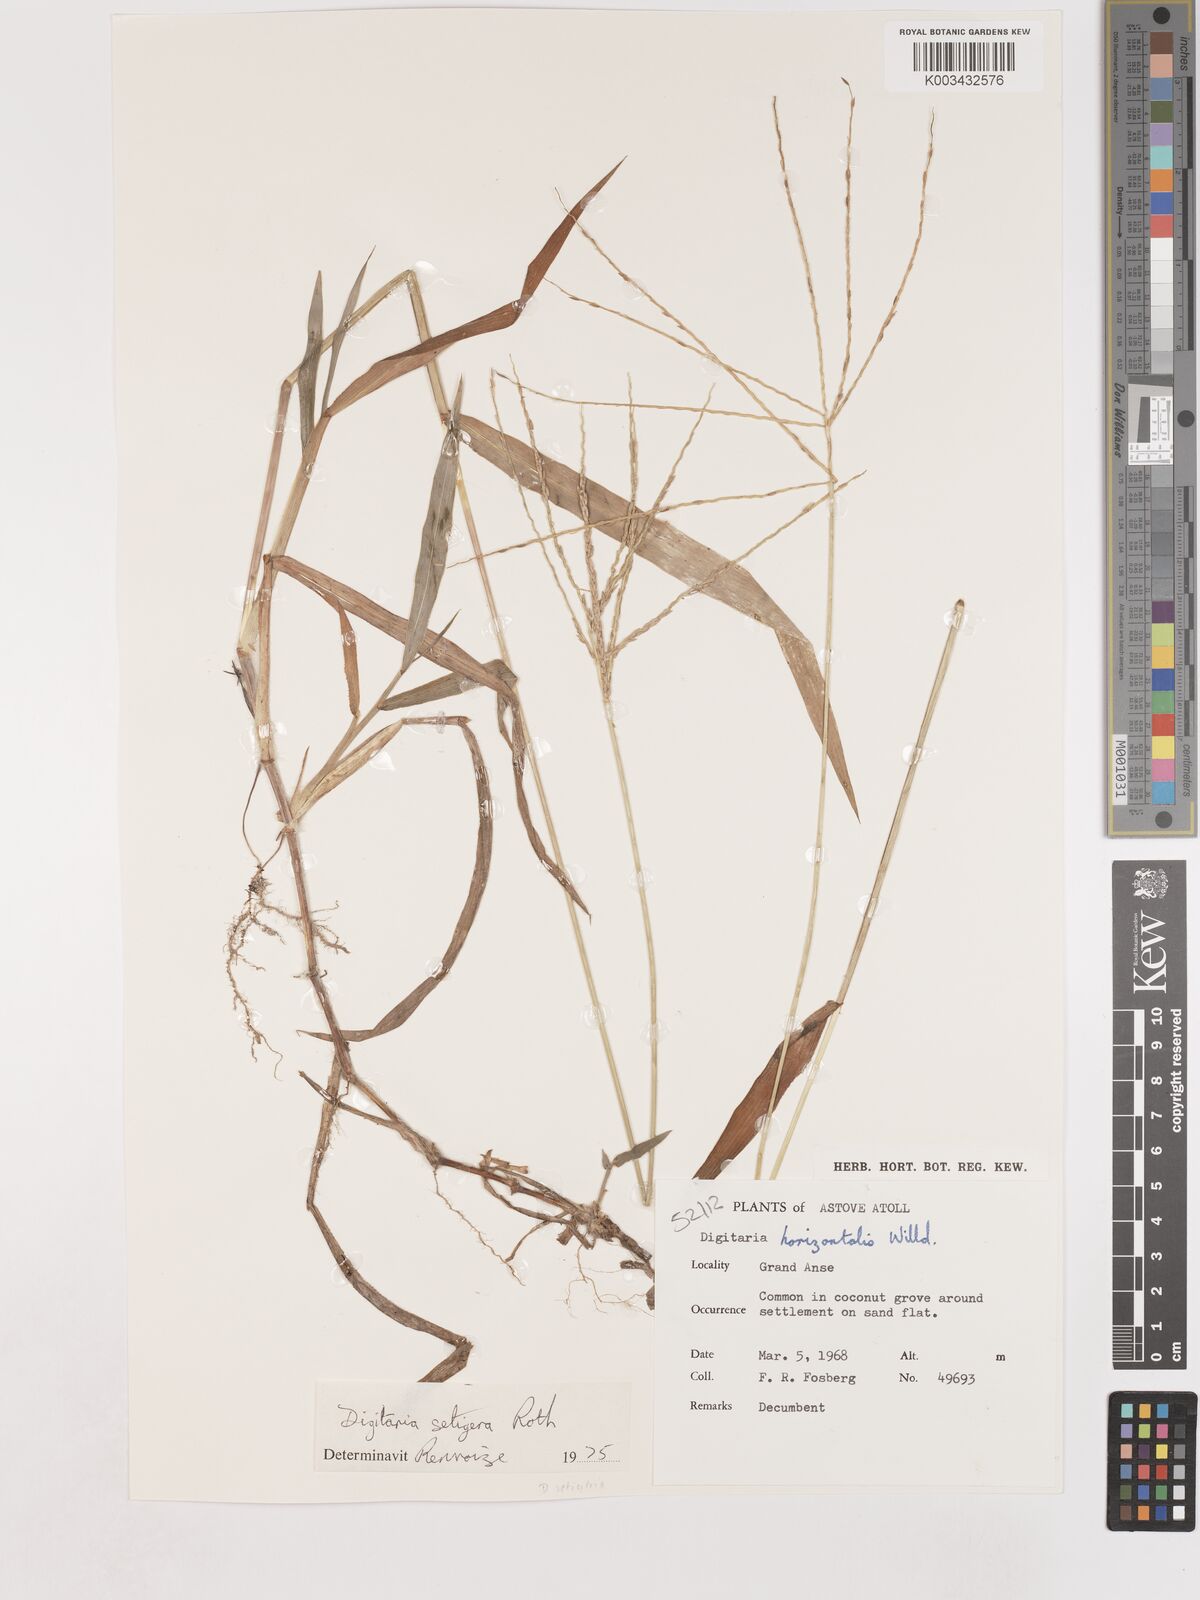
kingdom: Plantae
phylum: Tracheophyta
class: Liliopsida
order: Poales
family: Poaceae
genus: Digitaria
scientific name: Digitaria setigera
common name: East indian crabgrass
